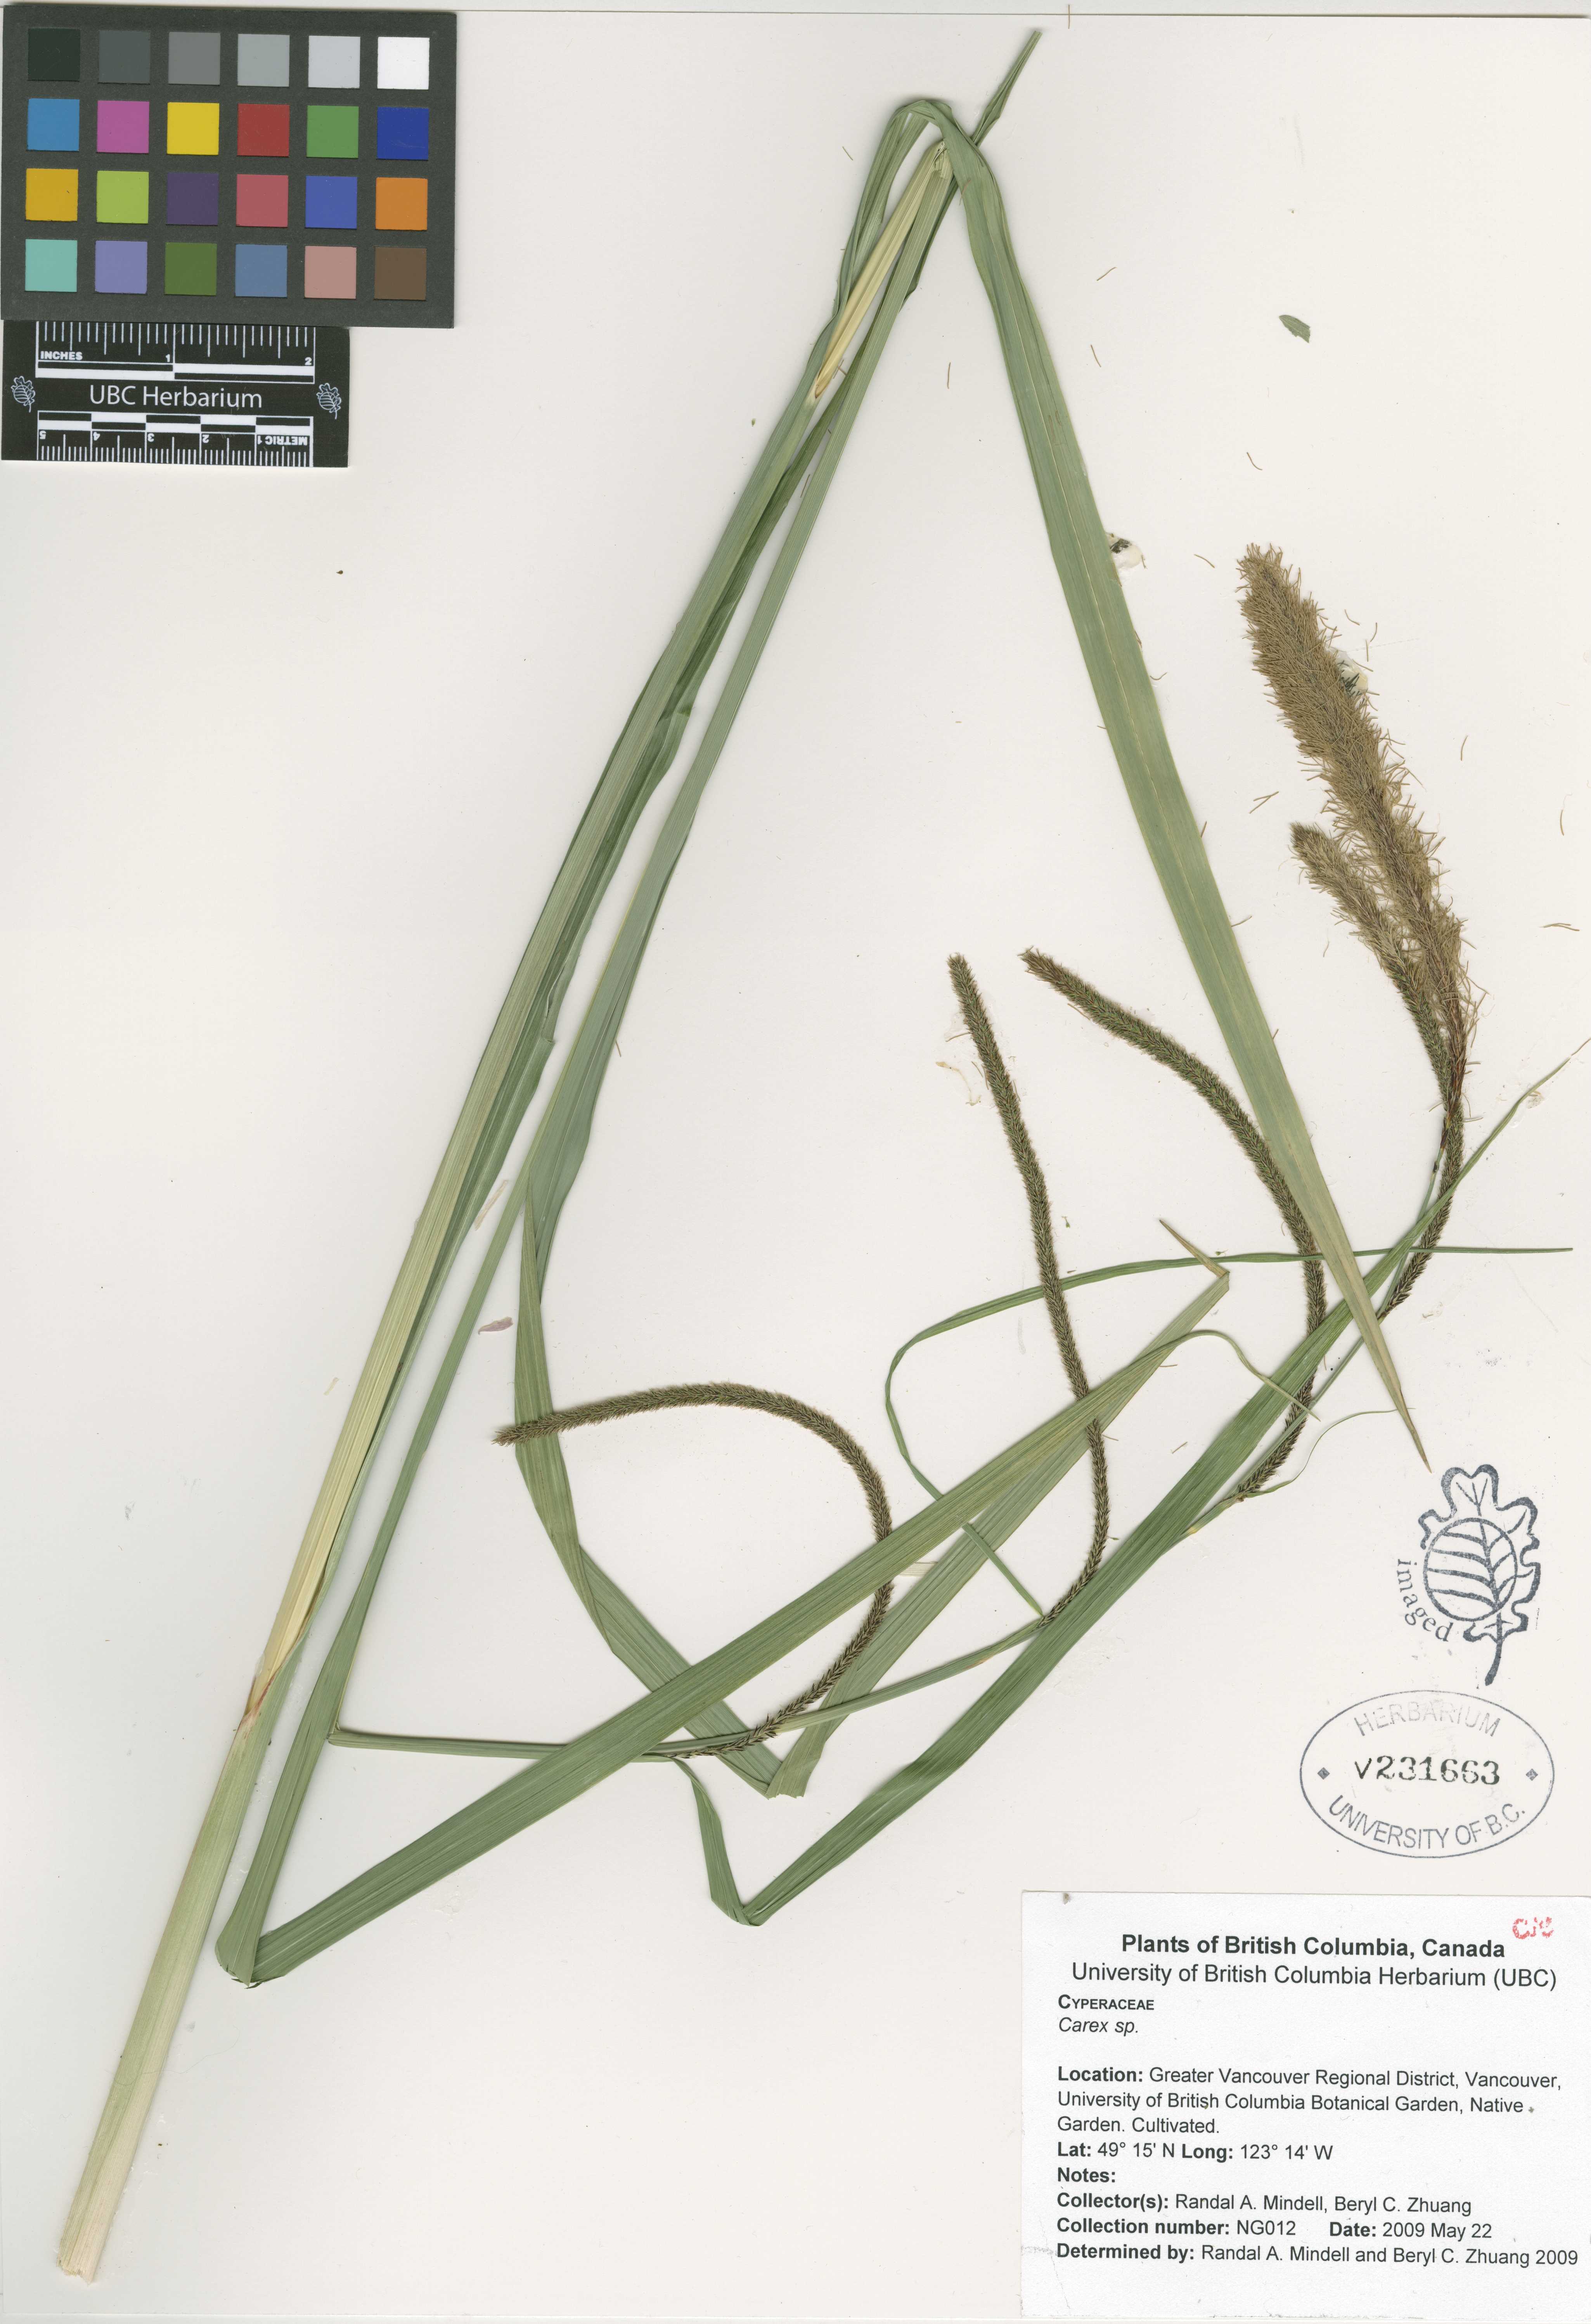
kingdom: Plantae
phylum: Tracheophyta
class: Liliopsida
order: Poales
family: Cyperaceae
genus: Carex
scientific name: Carex pendula
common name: Pendulous sedge
